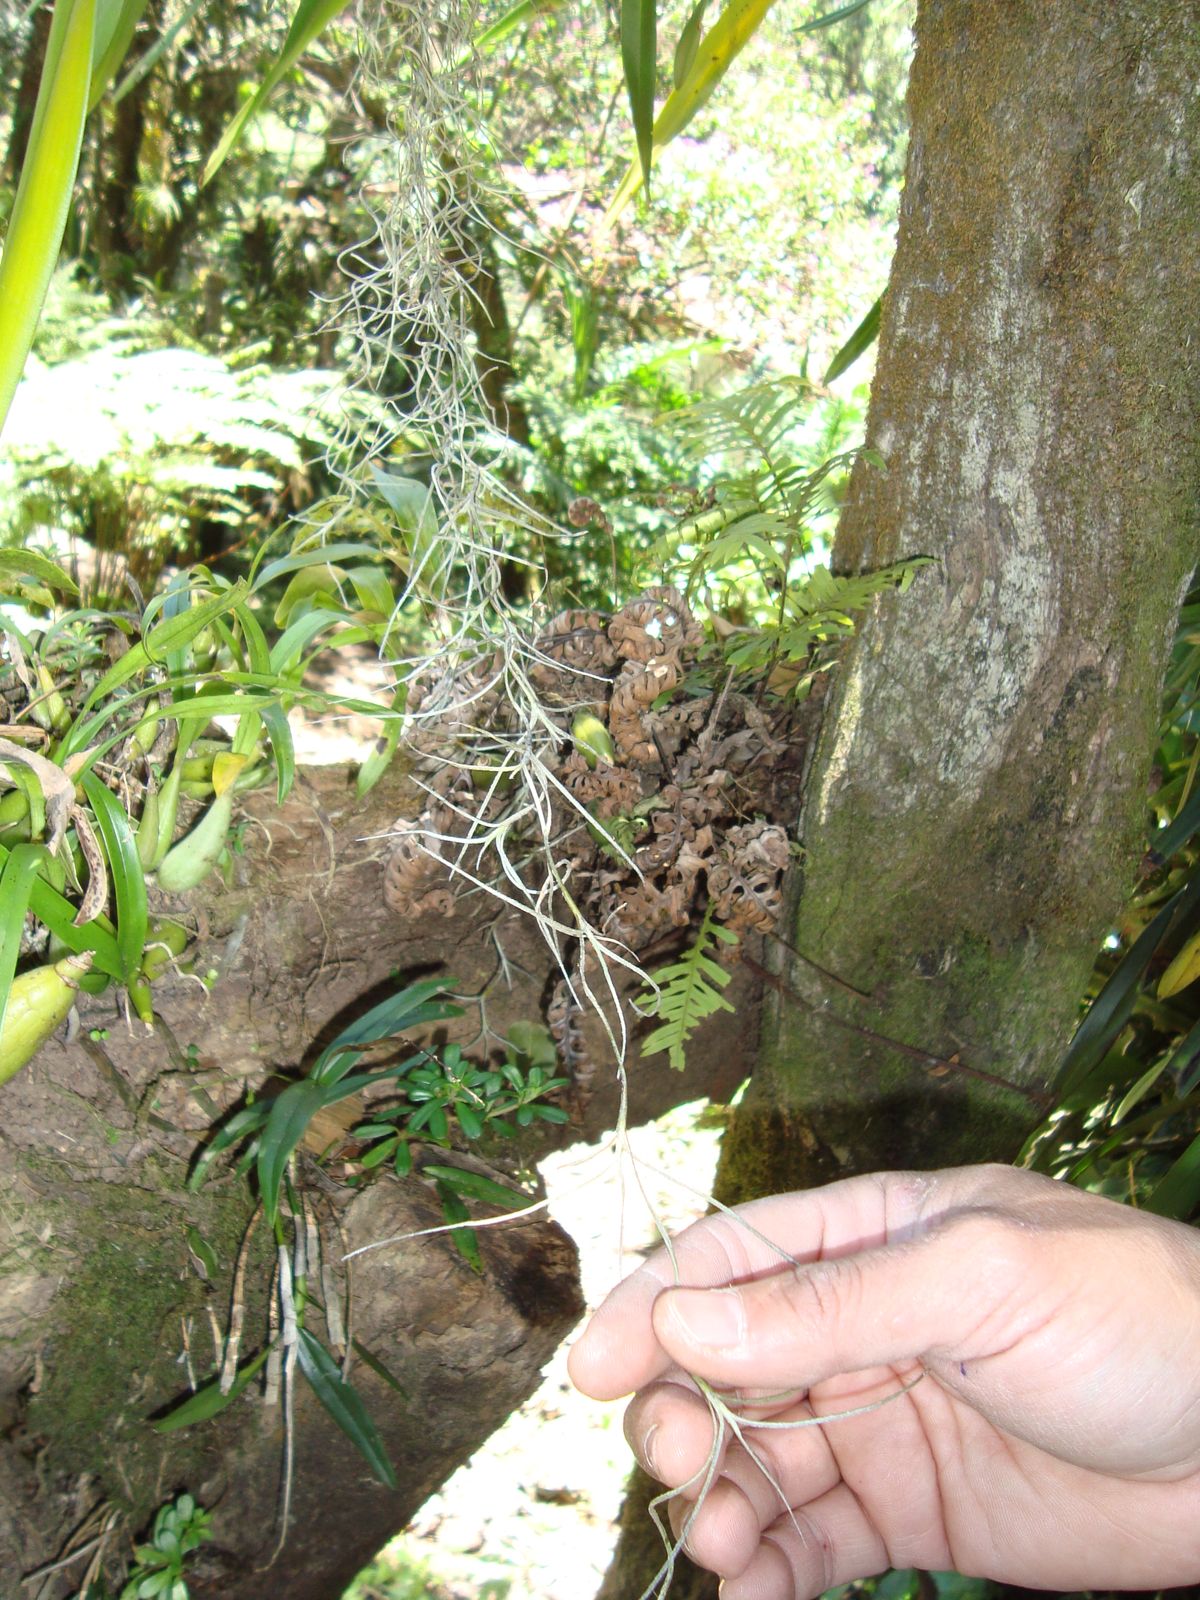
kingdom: Plantae
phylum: Tracheophyta
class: Liliopsida
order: Poales
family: Bromeliaceae
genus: Tillandsia
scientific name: Tillandsia usneoides
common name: Spanish moss
